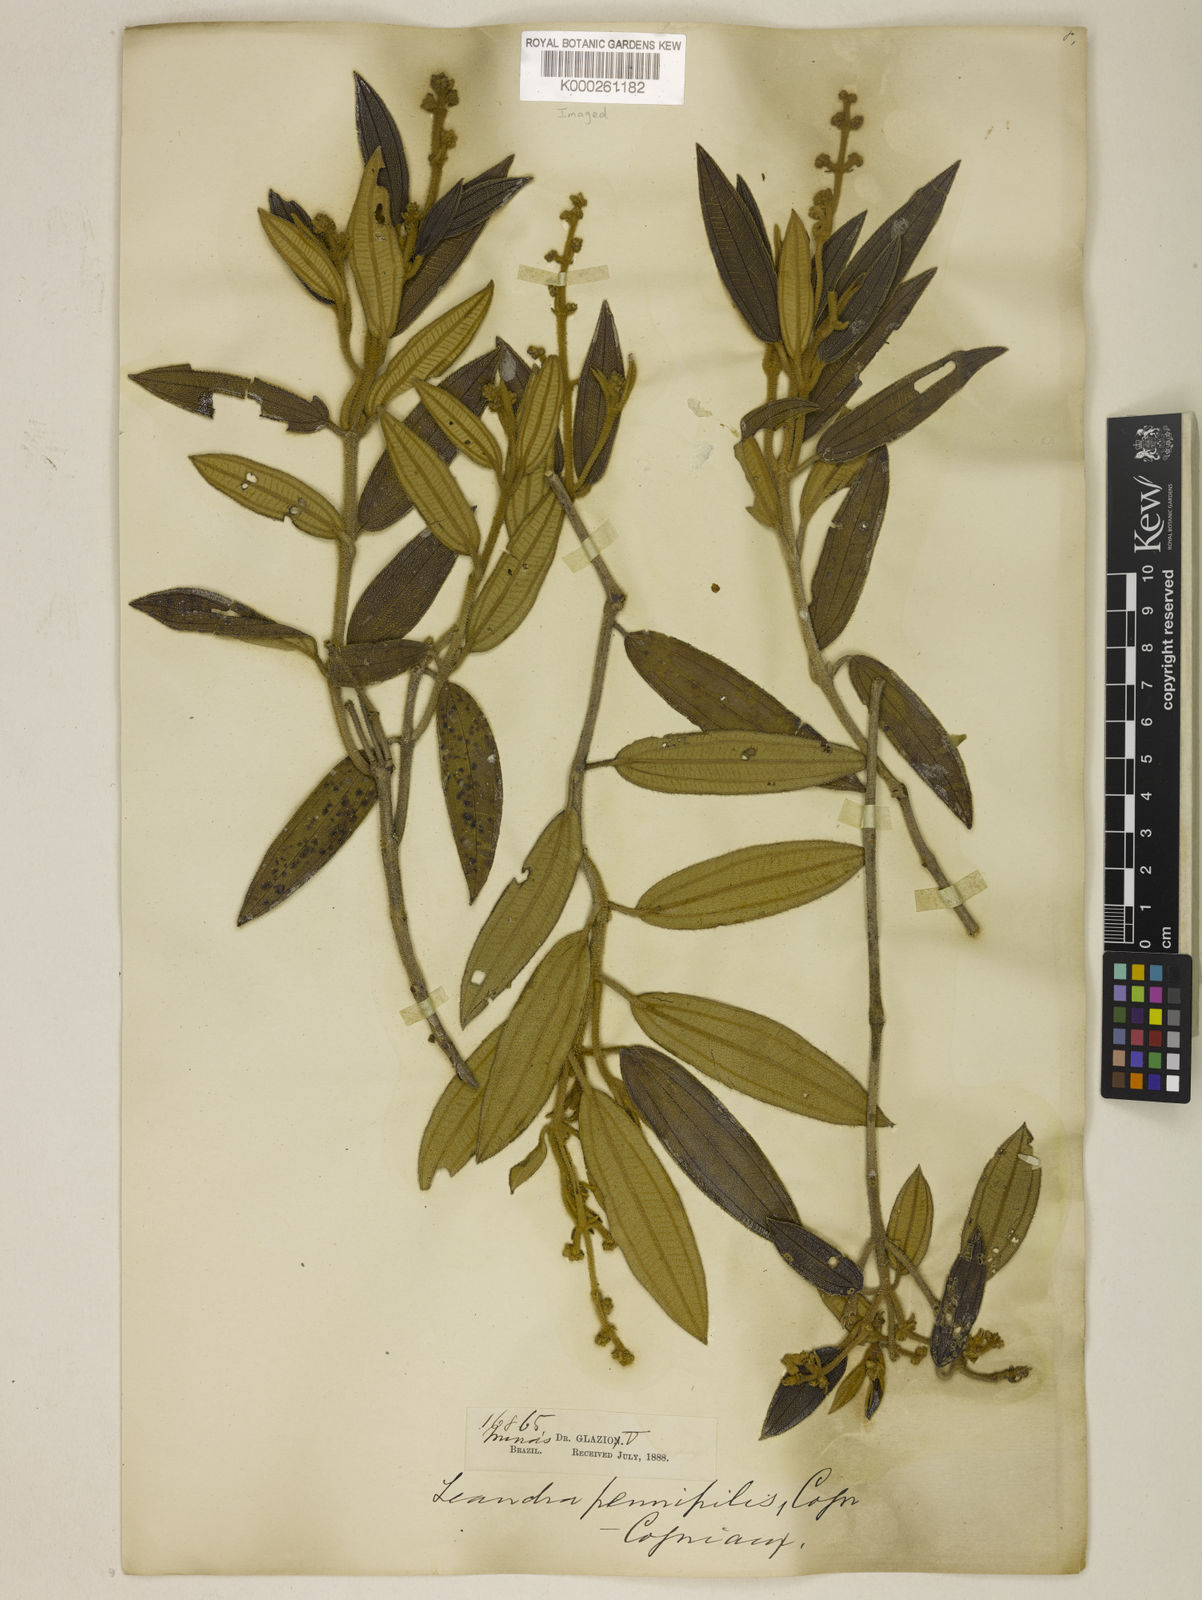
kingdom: Plantae
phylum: Tracheophyta
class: Magnoliopsida
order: Myrtales
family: Melastomataceae
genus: Miconia
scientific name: Miconia leapennipilis
